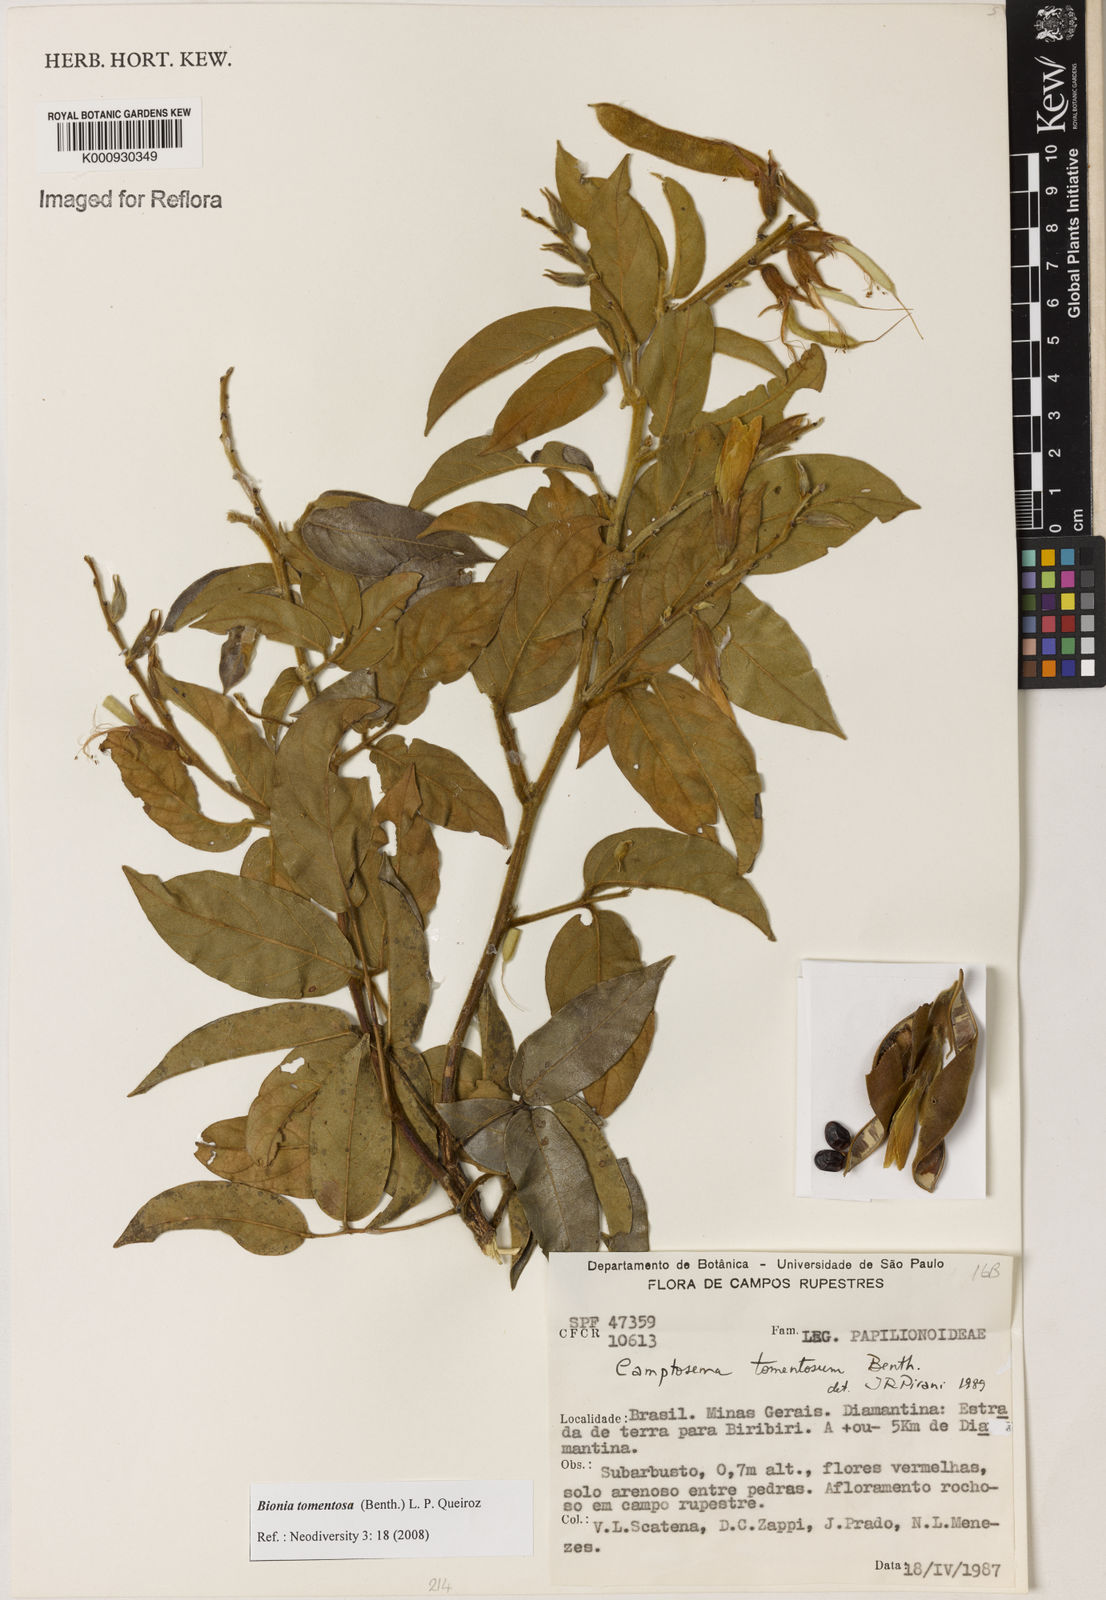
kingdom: Plantae
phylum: Tracheophyta
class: Magnoliopsida
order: Fabales
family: Fabaceae
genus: Camptosema
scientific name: Camptosema tomentosum
